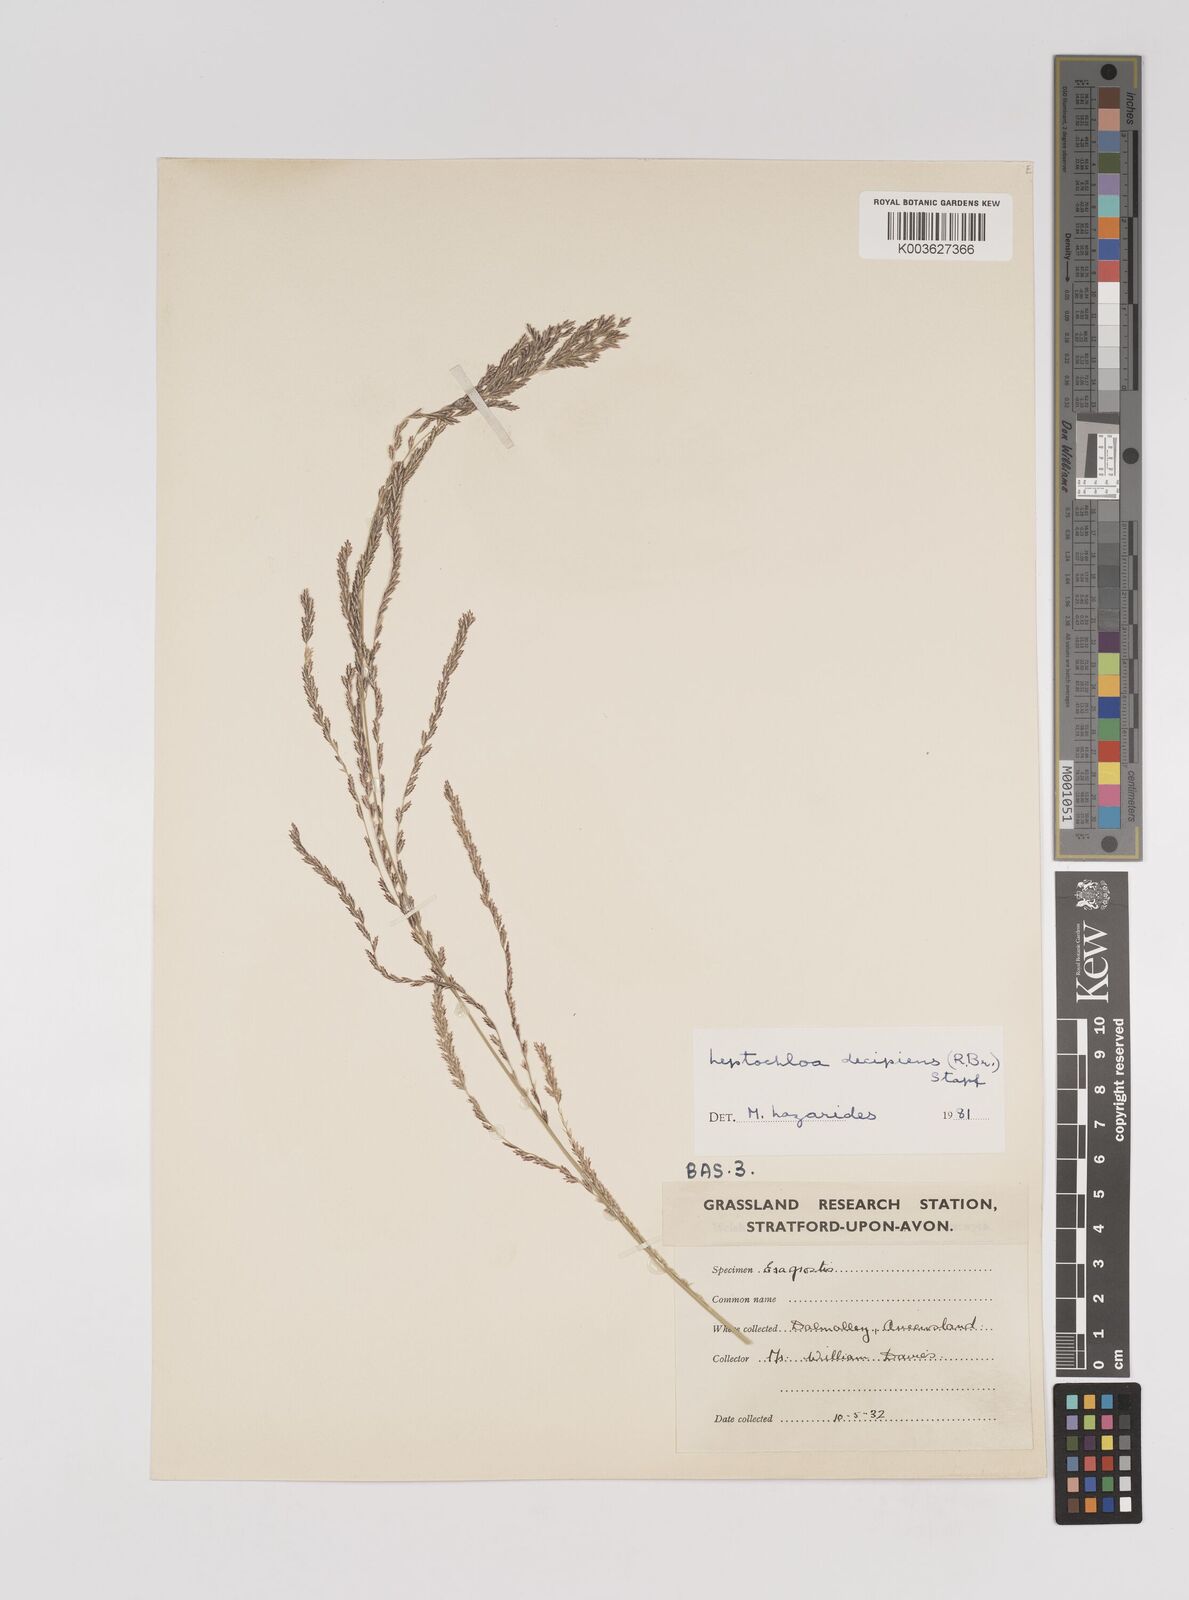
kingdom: Plantae
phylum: Tracheophyta
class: Liliopsida
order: Poales
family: Poaceae
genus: Leptochloa
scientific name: Leptochloa decipiens
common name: Australian sprangletop
